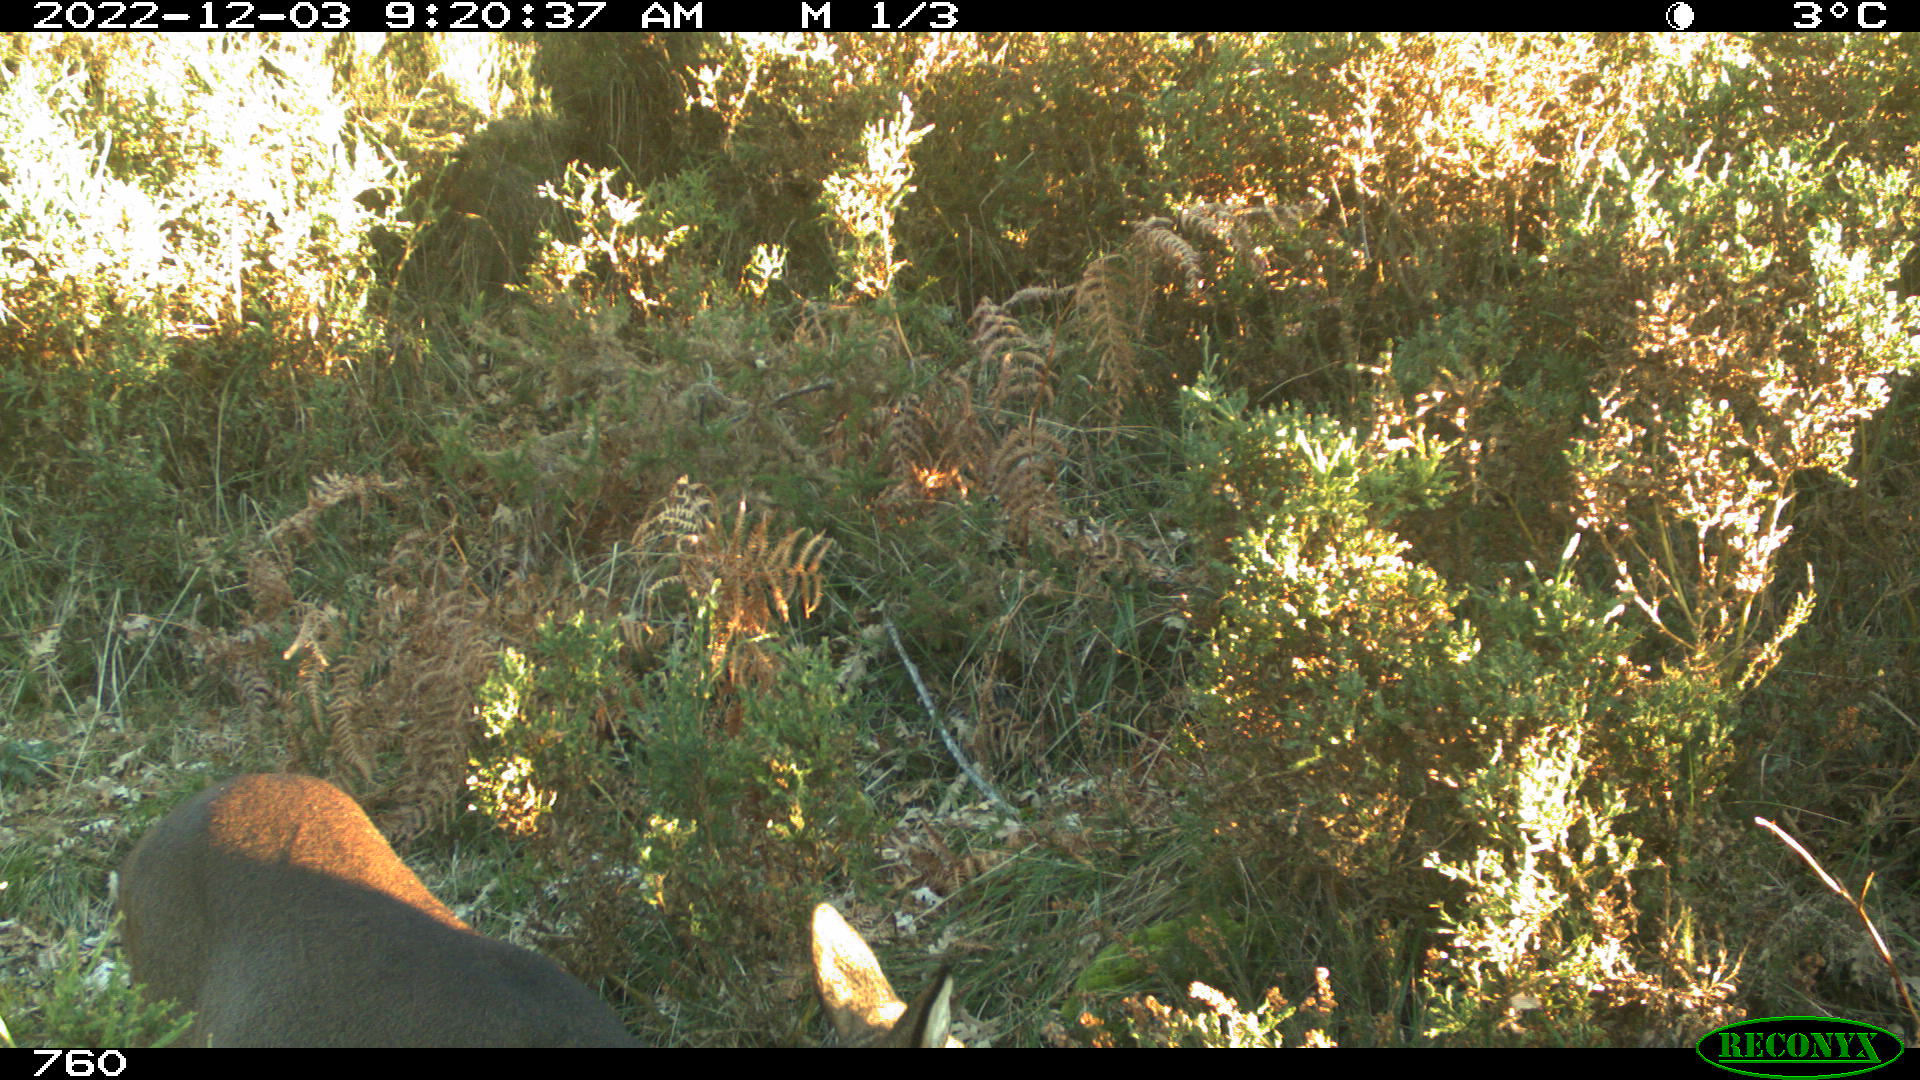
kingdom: Animalia
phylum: Chordata
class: Mammalia
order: Artiodactyla
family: Cervidae
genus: Capreolus
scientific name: Capreolus capreolus
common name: Western roe deer
